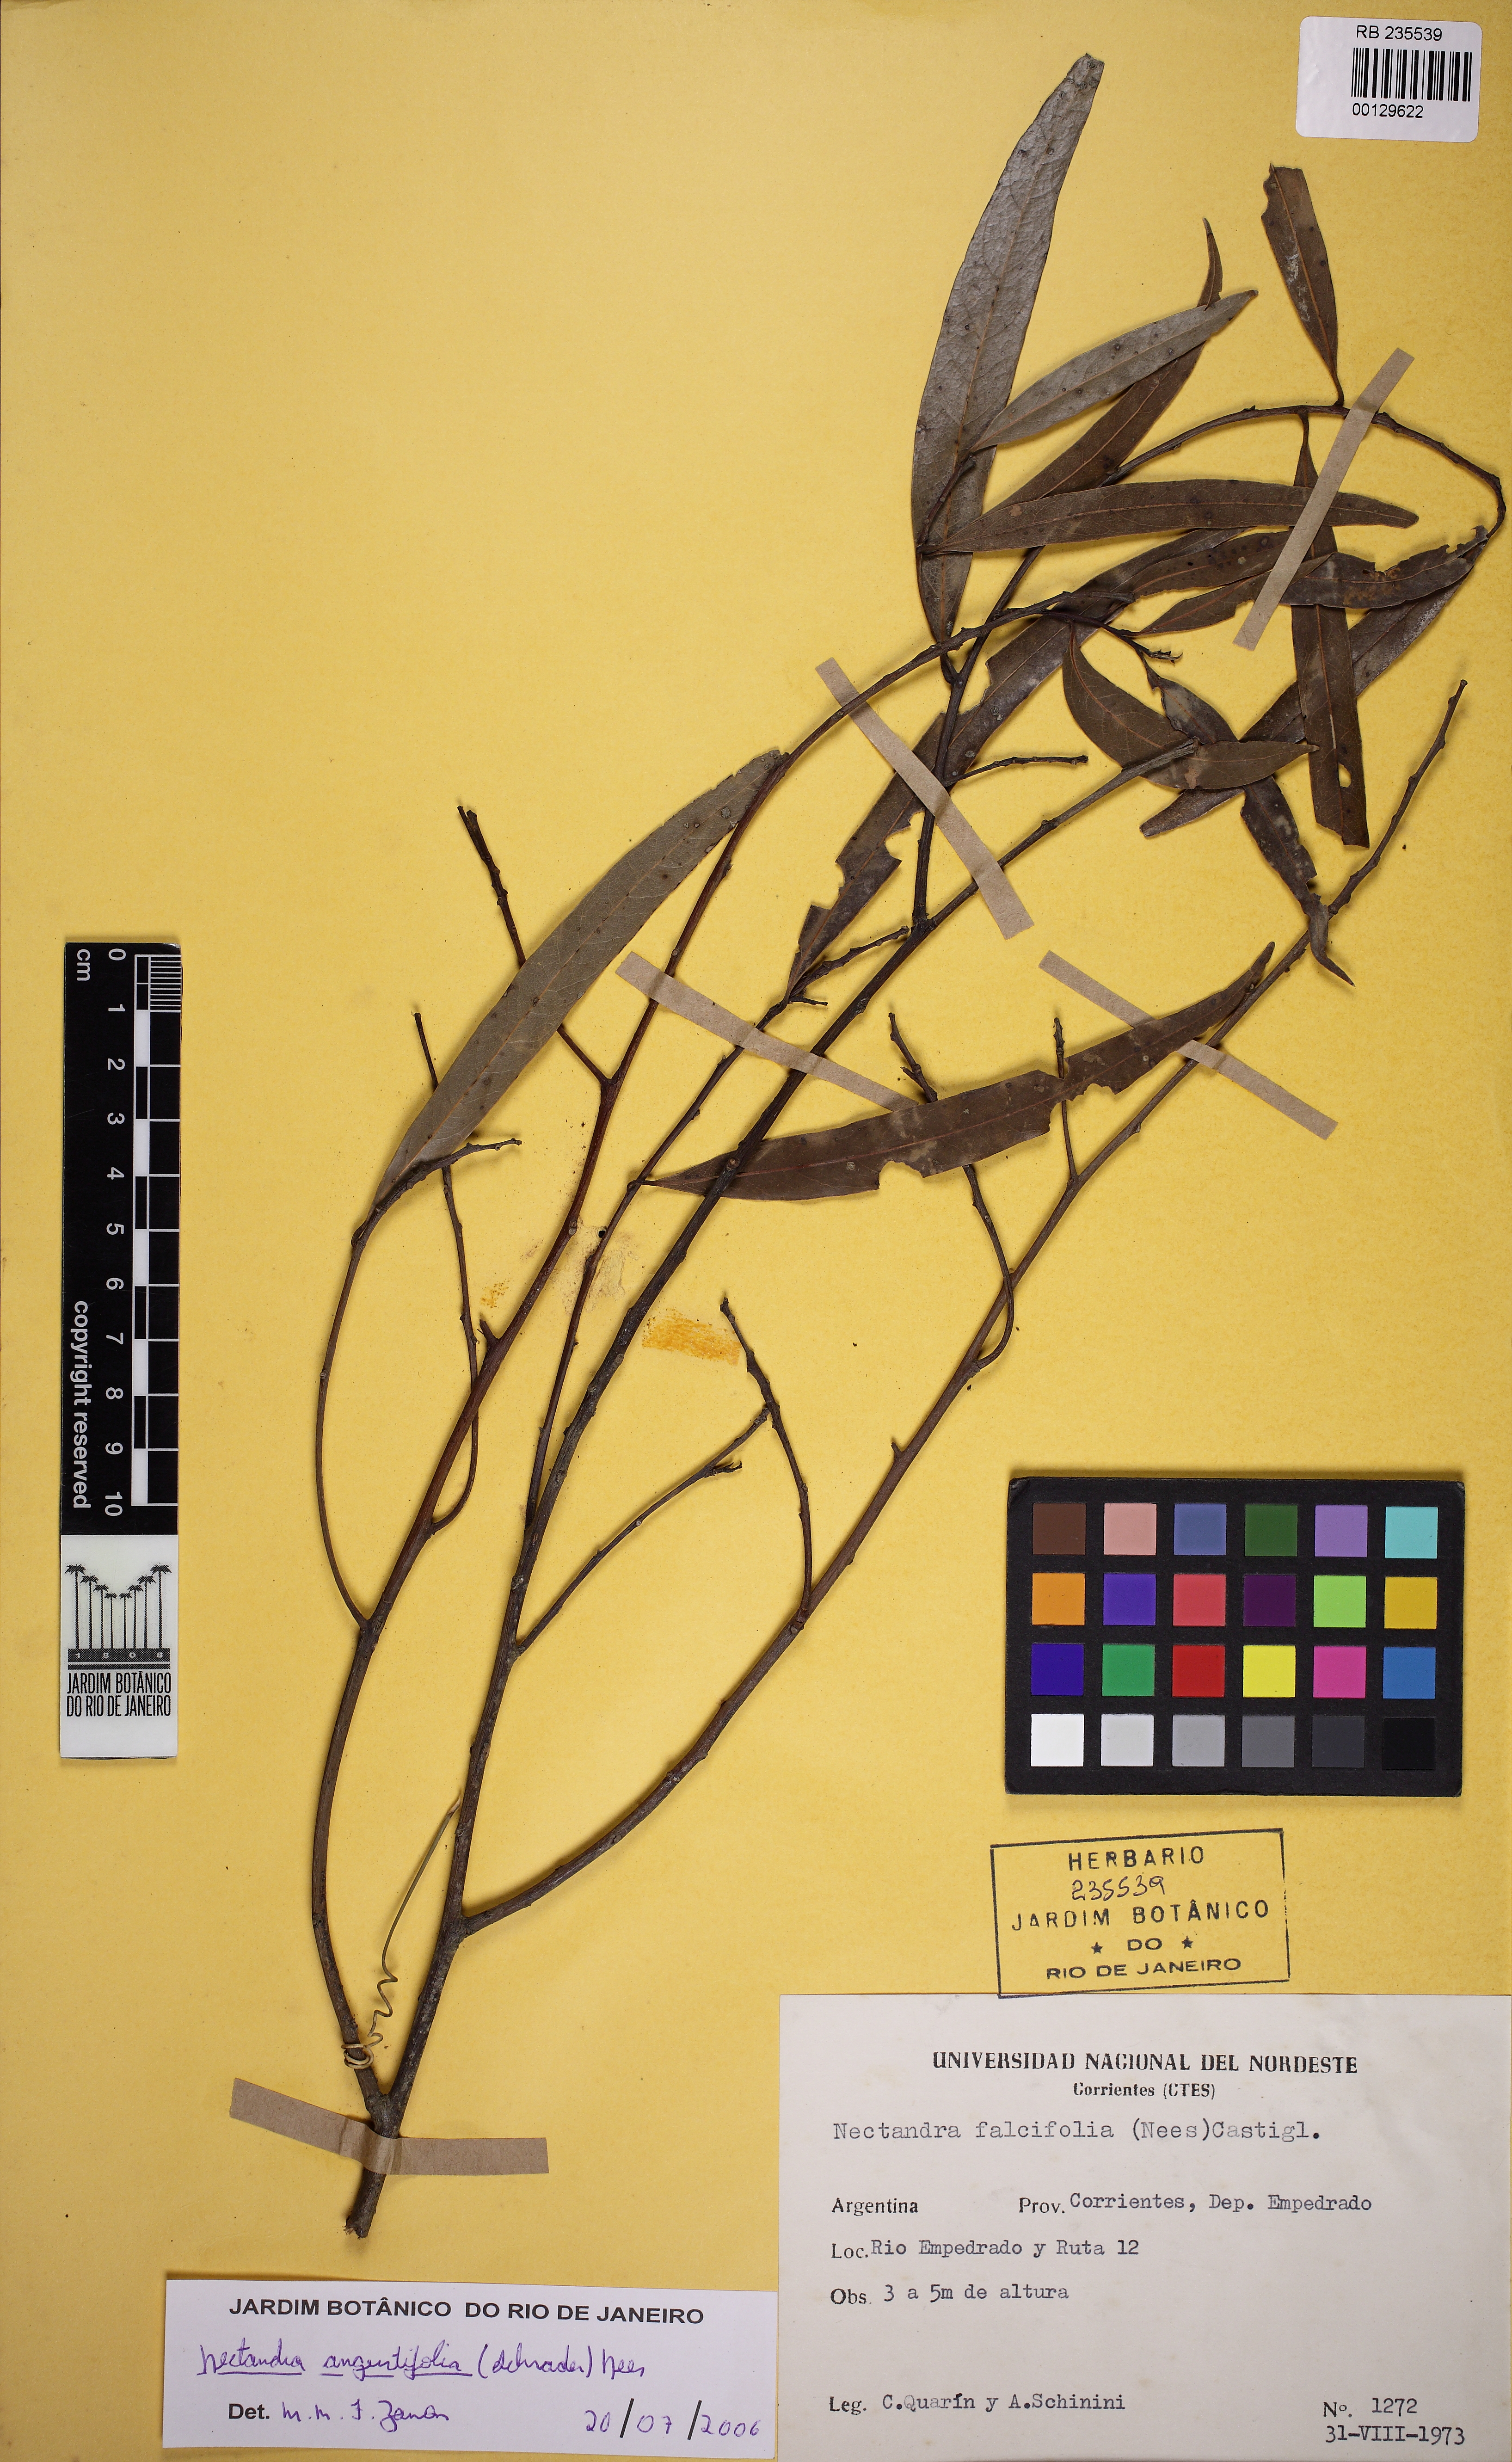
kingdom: Plantae
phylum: Tracheophyta
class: Magnoliopsida
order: Laurales
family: Lauraceae
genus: Nectandra
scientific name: Nectandra angustifolia
